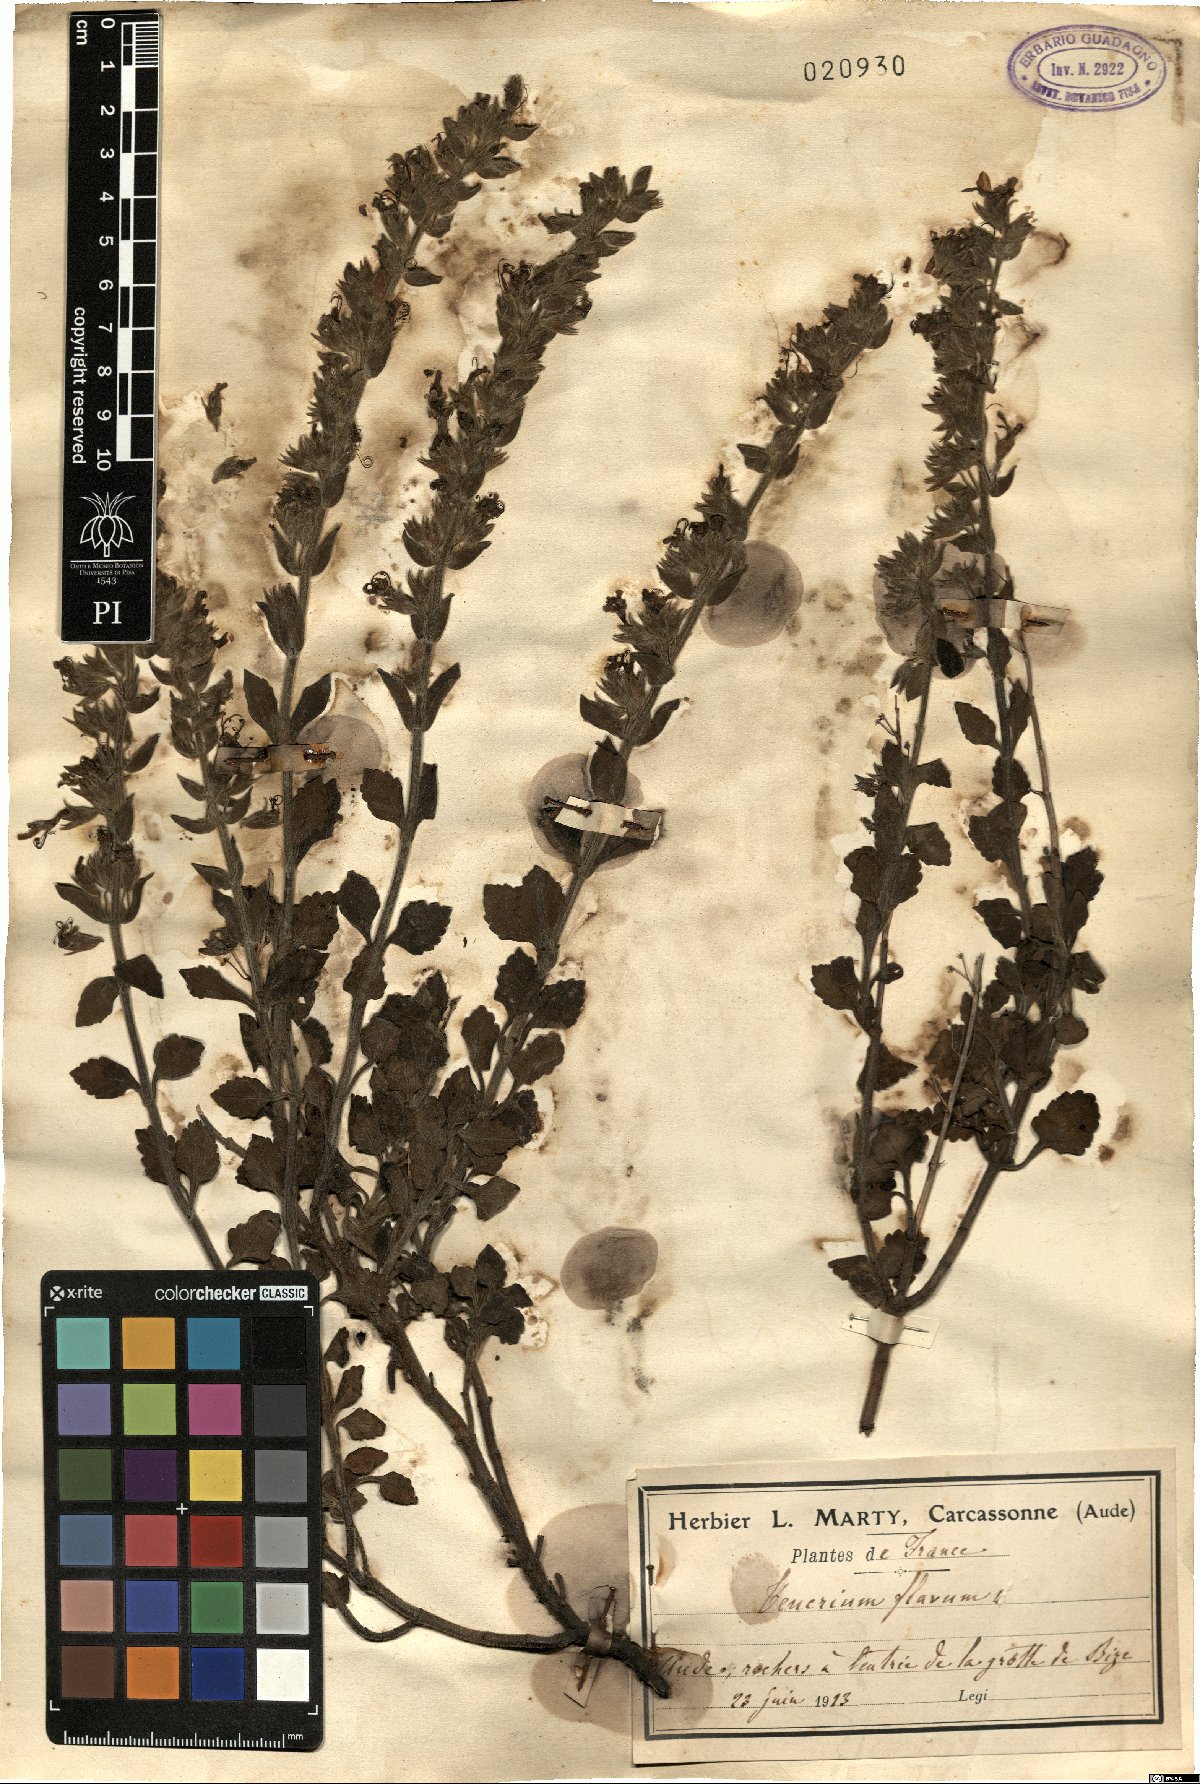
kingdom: Plantae
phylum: Tracheophyta
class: Magnoliopsida
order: Lamiales
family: Lamiaceae
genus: Teucrium
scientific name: Teucrium flavum
